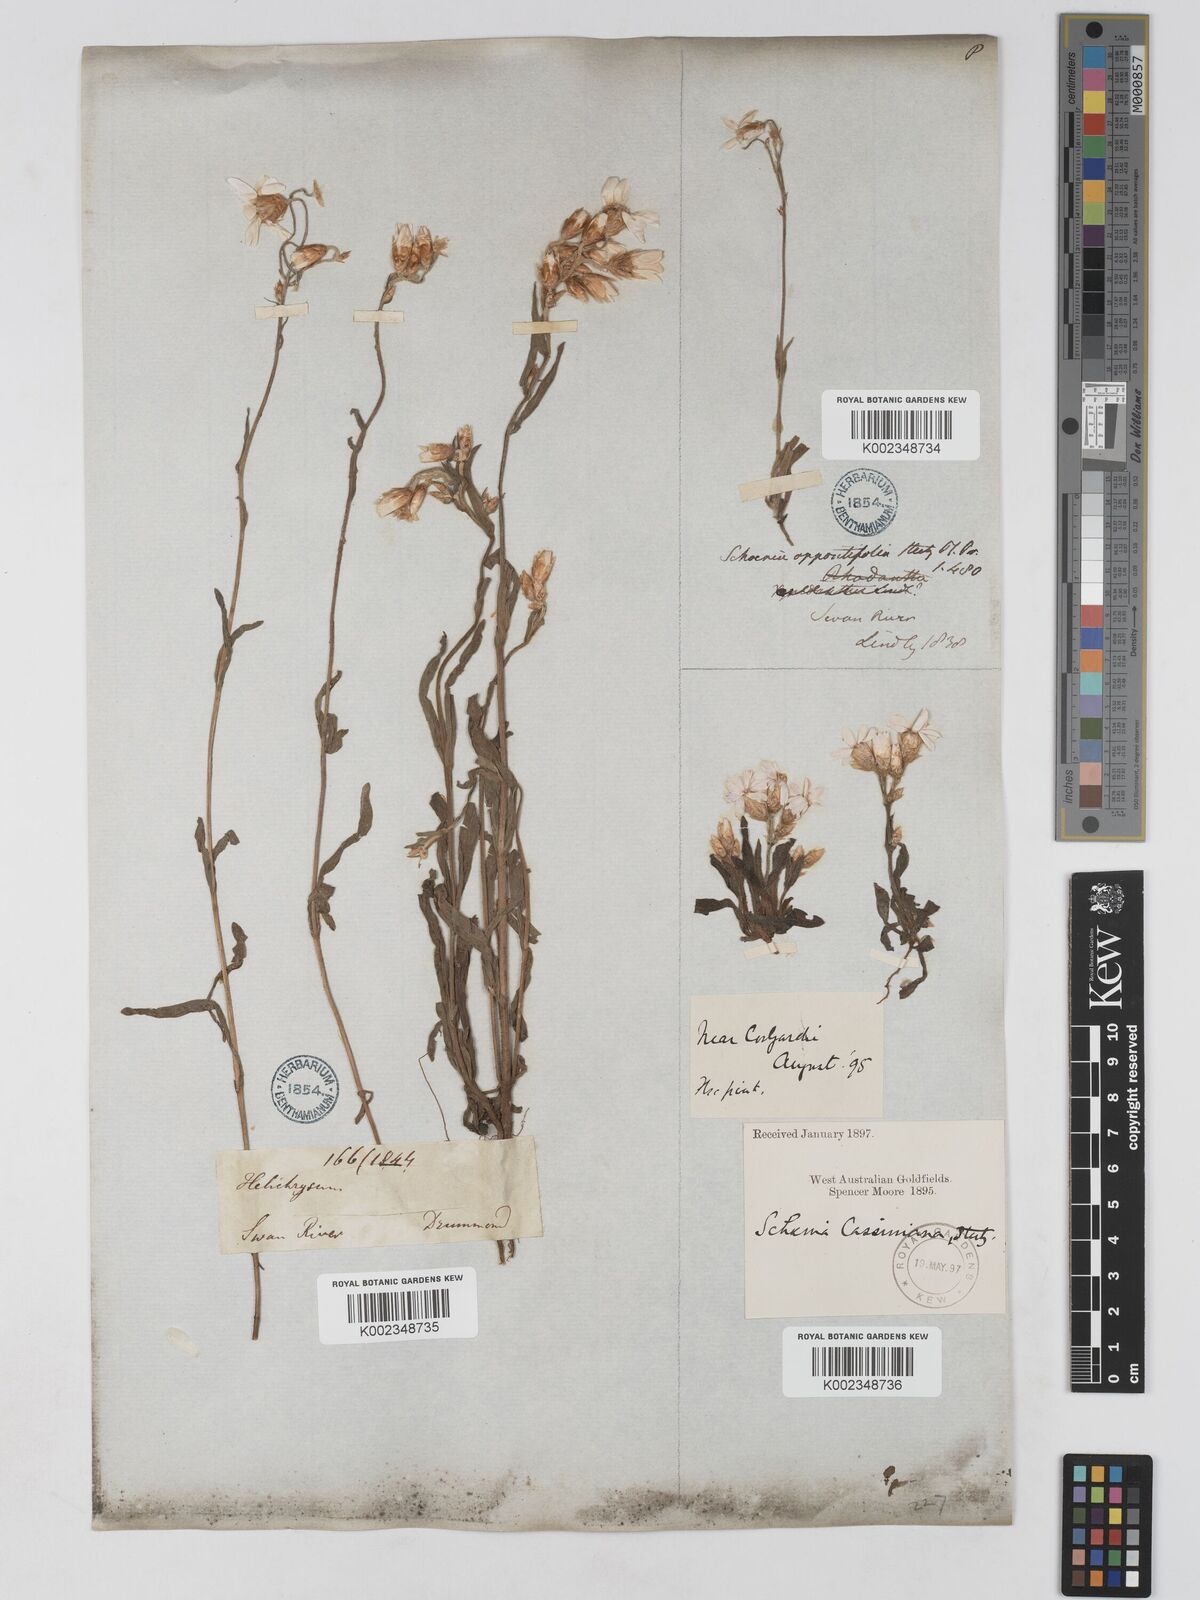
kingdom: Plantae
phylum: Tracheophyta
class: Magnoliopsida
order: Asterales
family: Asteraceae
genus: Schoenia
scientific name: Schoenia cassiniana
